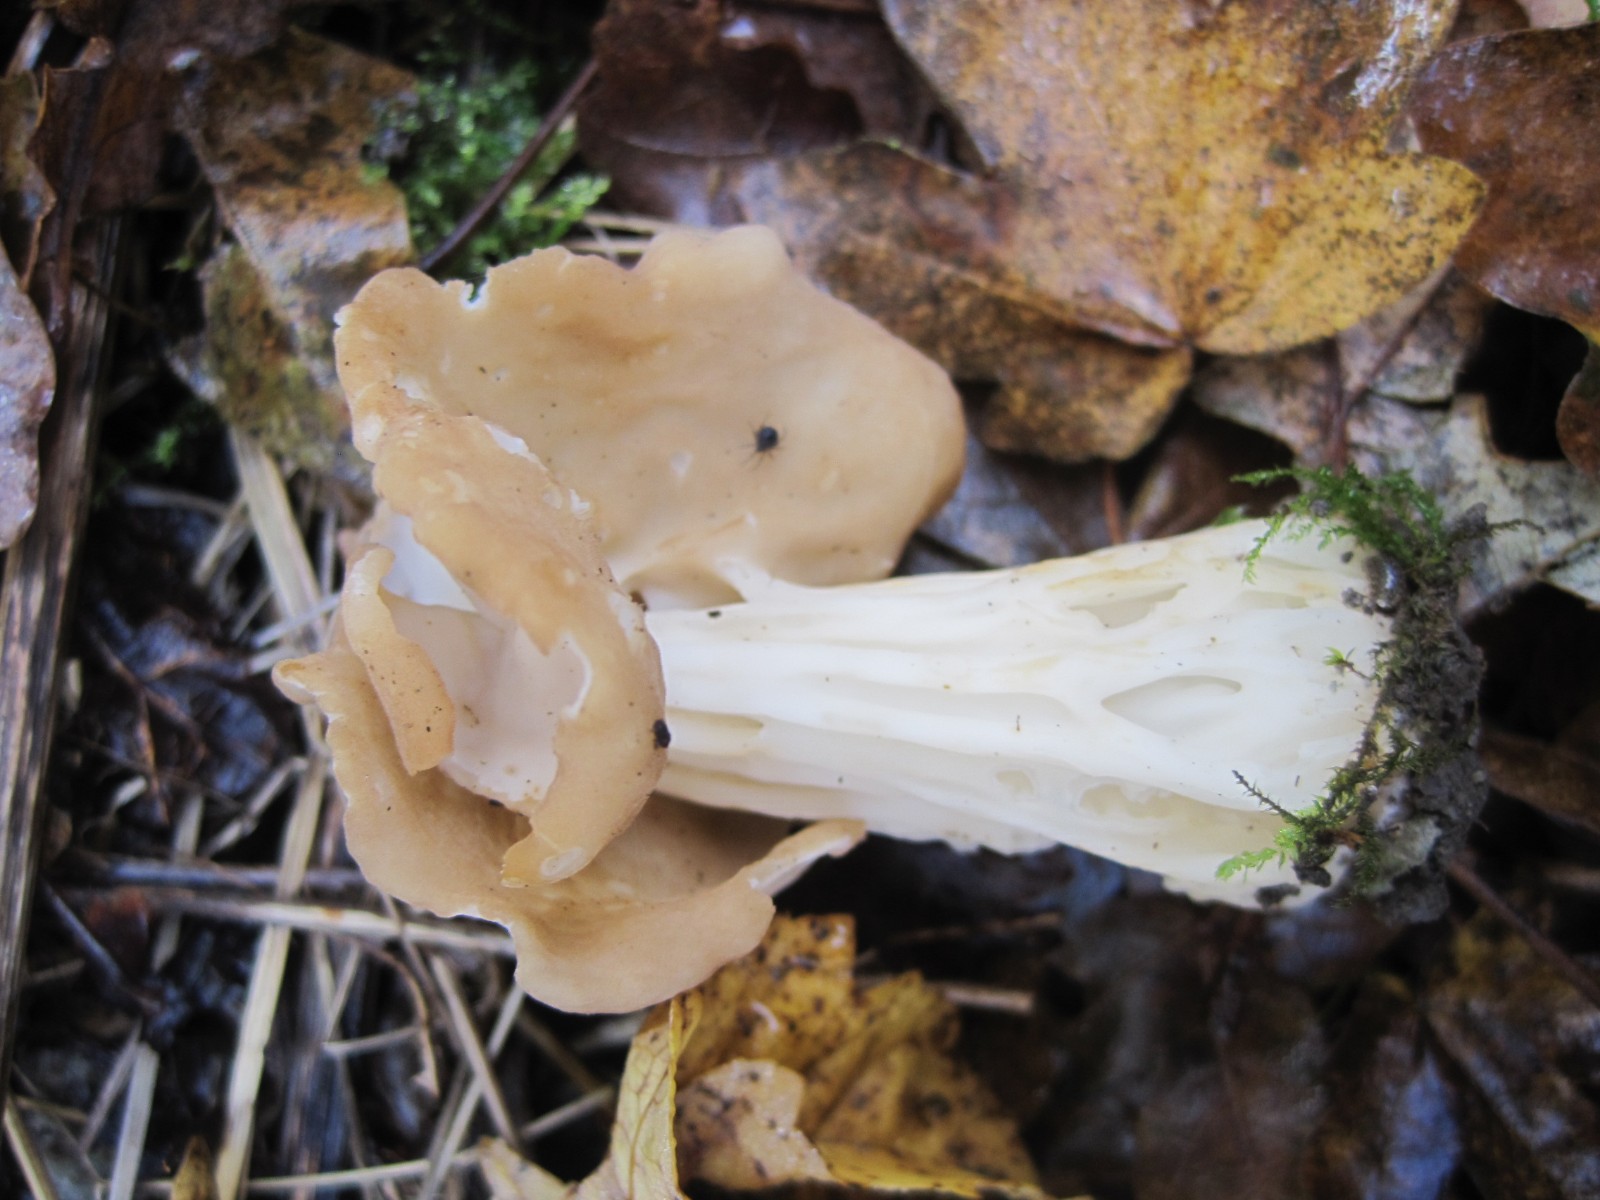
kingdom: Fungi
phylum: Ascomycota
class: Pezizomycetes
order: Pezizales
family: Helvellaceae
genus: Helvella
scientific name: Helvella crispa
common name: kruset foldhat
